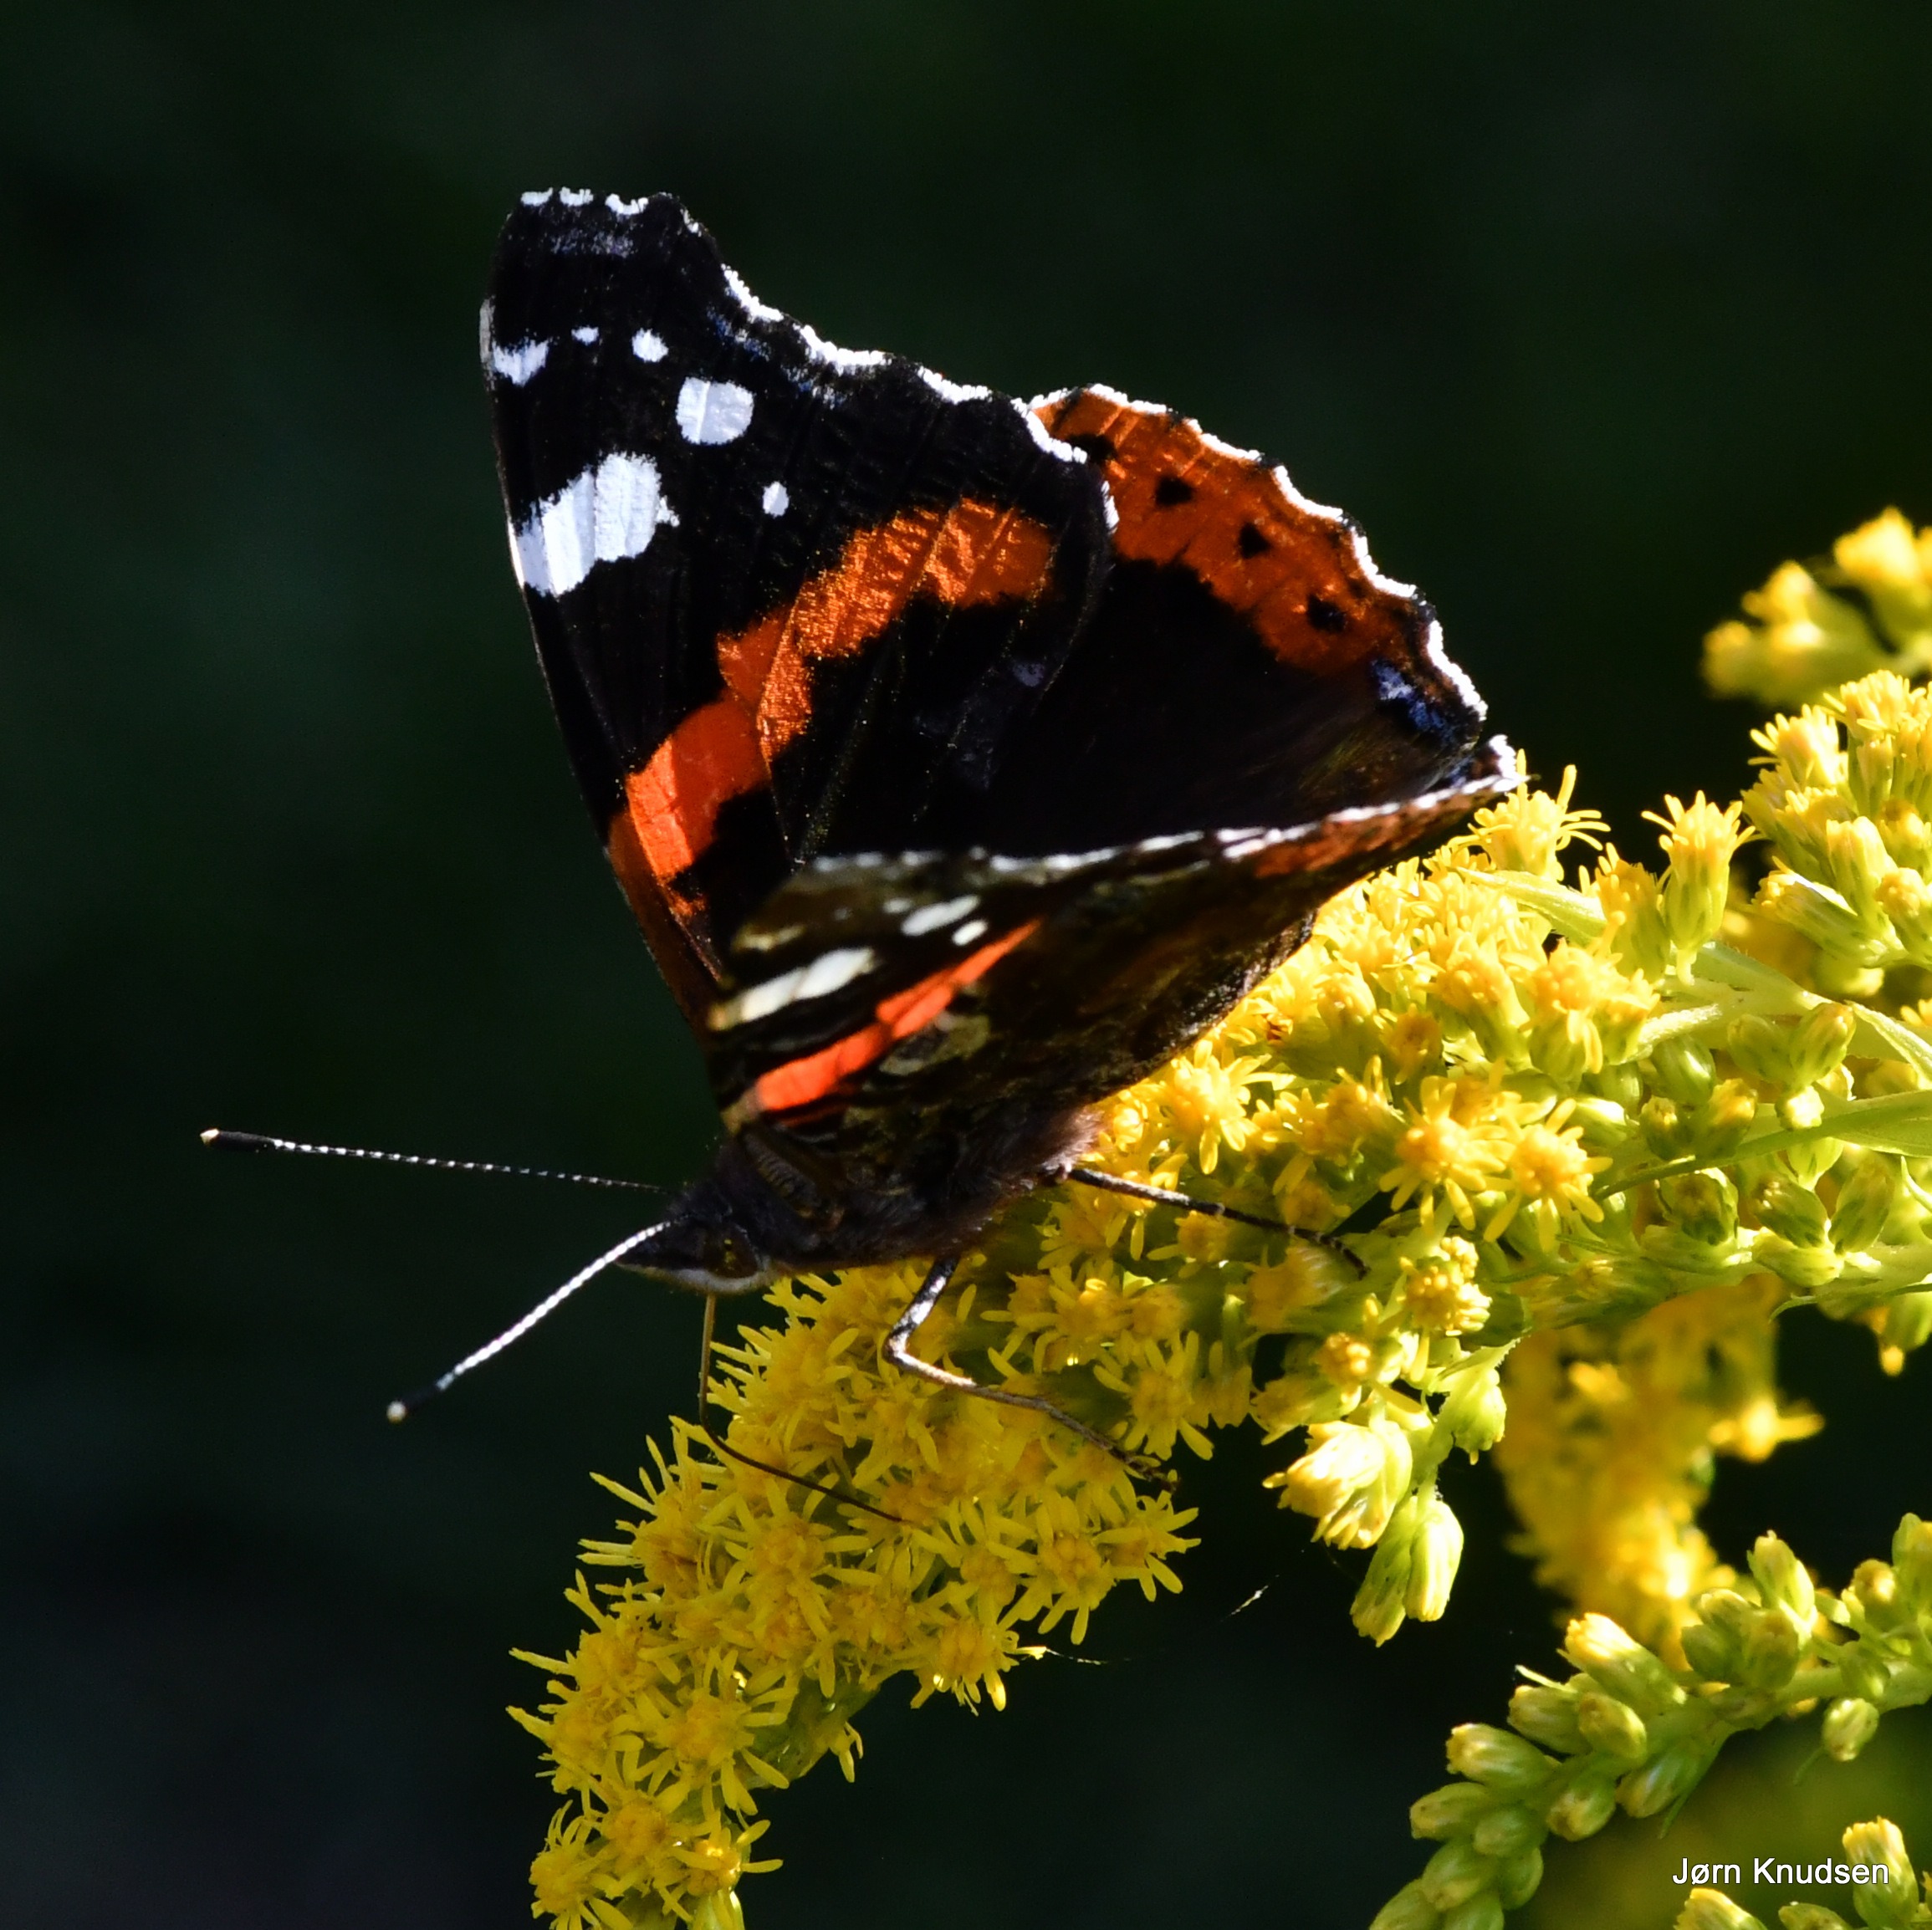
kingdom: Animalia
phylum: Arthropoda
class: Insecta
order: Lepidoptera
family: Nymphalidae
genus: Vanessa
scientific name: Vanessa atalanta
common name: Admiral
